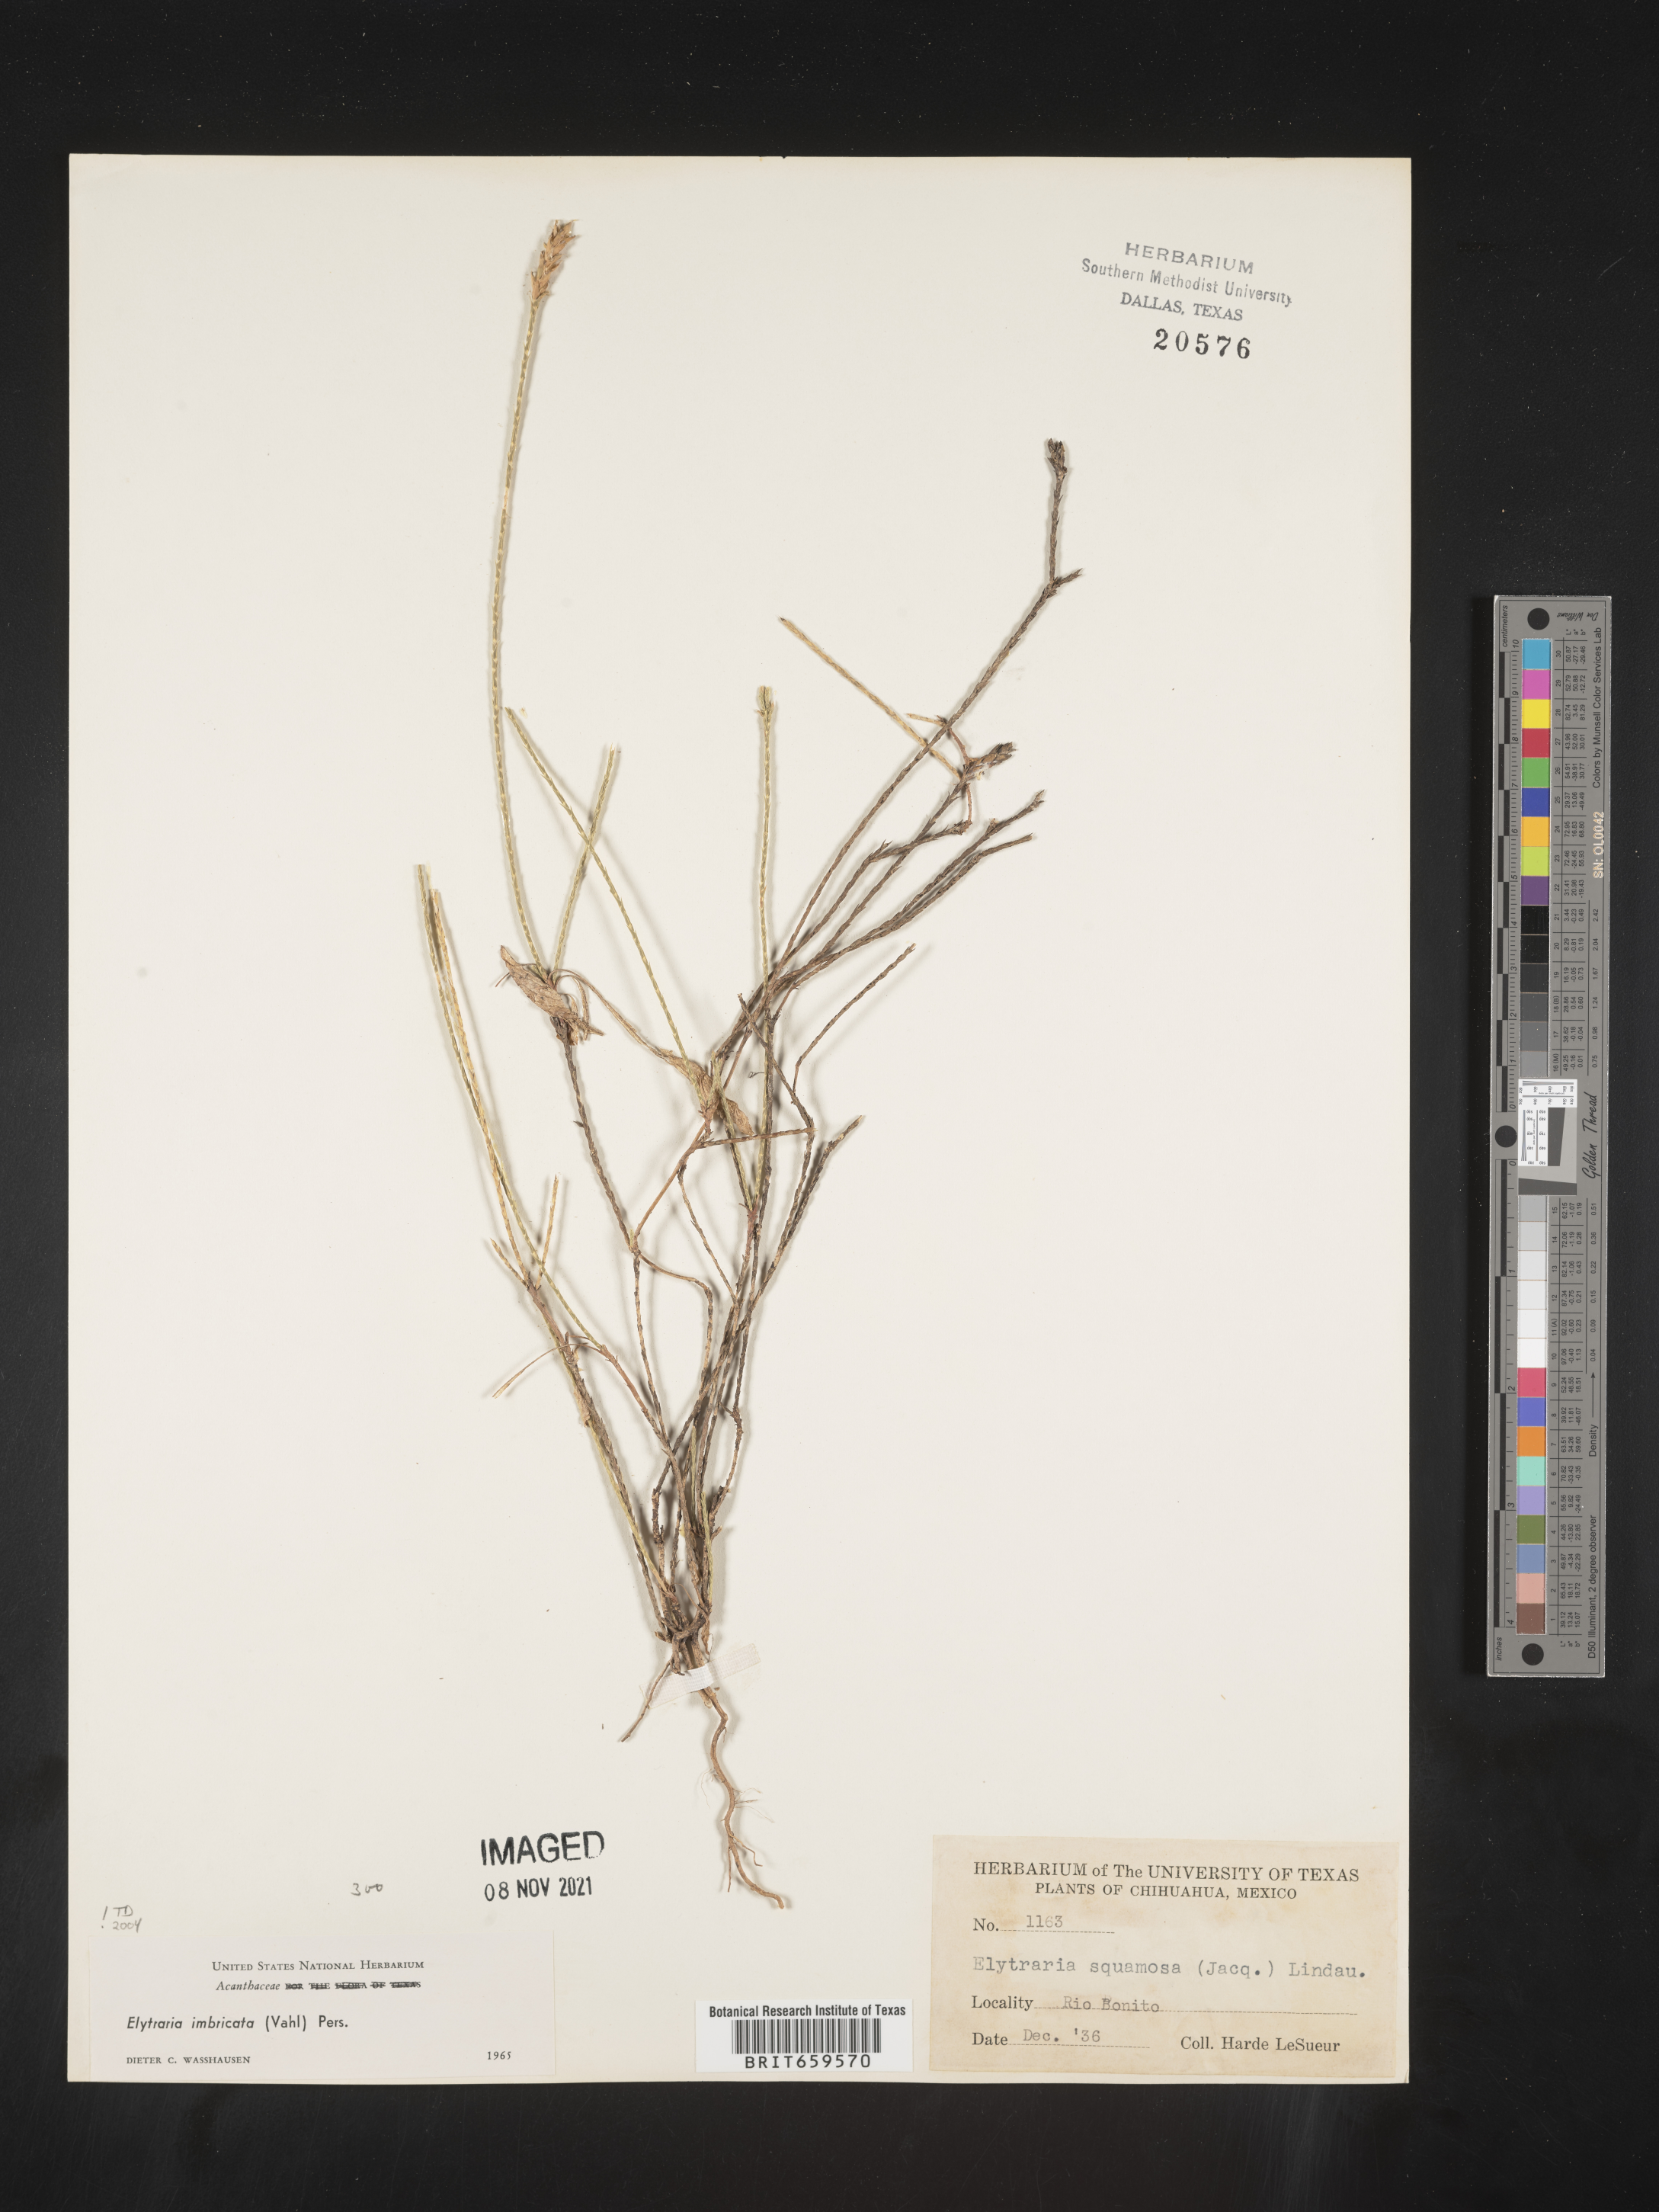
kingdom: Plantae
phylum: Tracheophyta
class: Magnoliopsida
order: Lamiales
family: Acanthaceae
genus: Elytraria
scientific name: Elytraria imbricata
